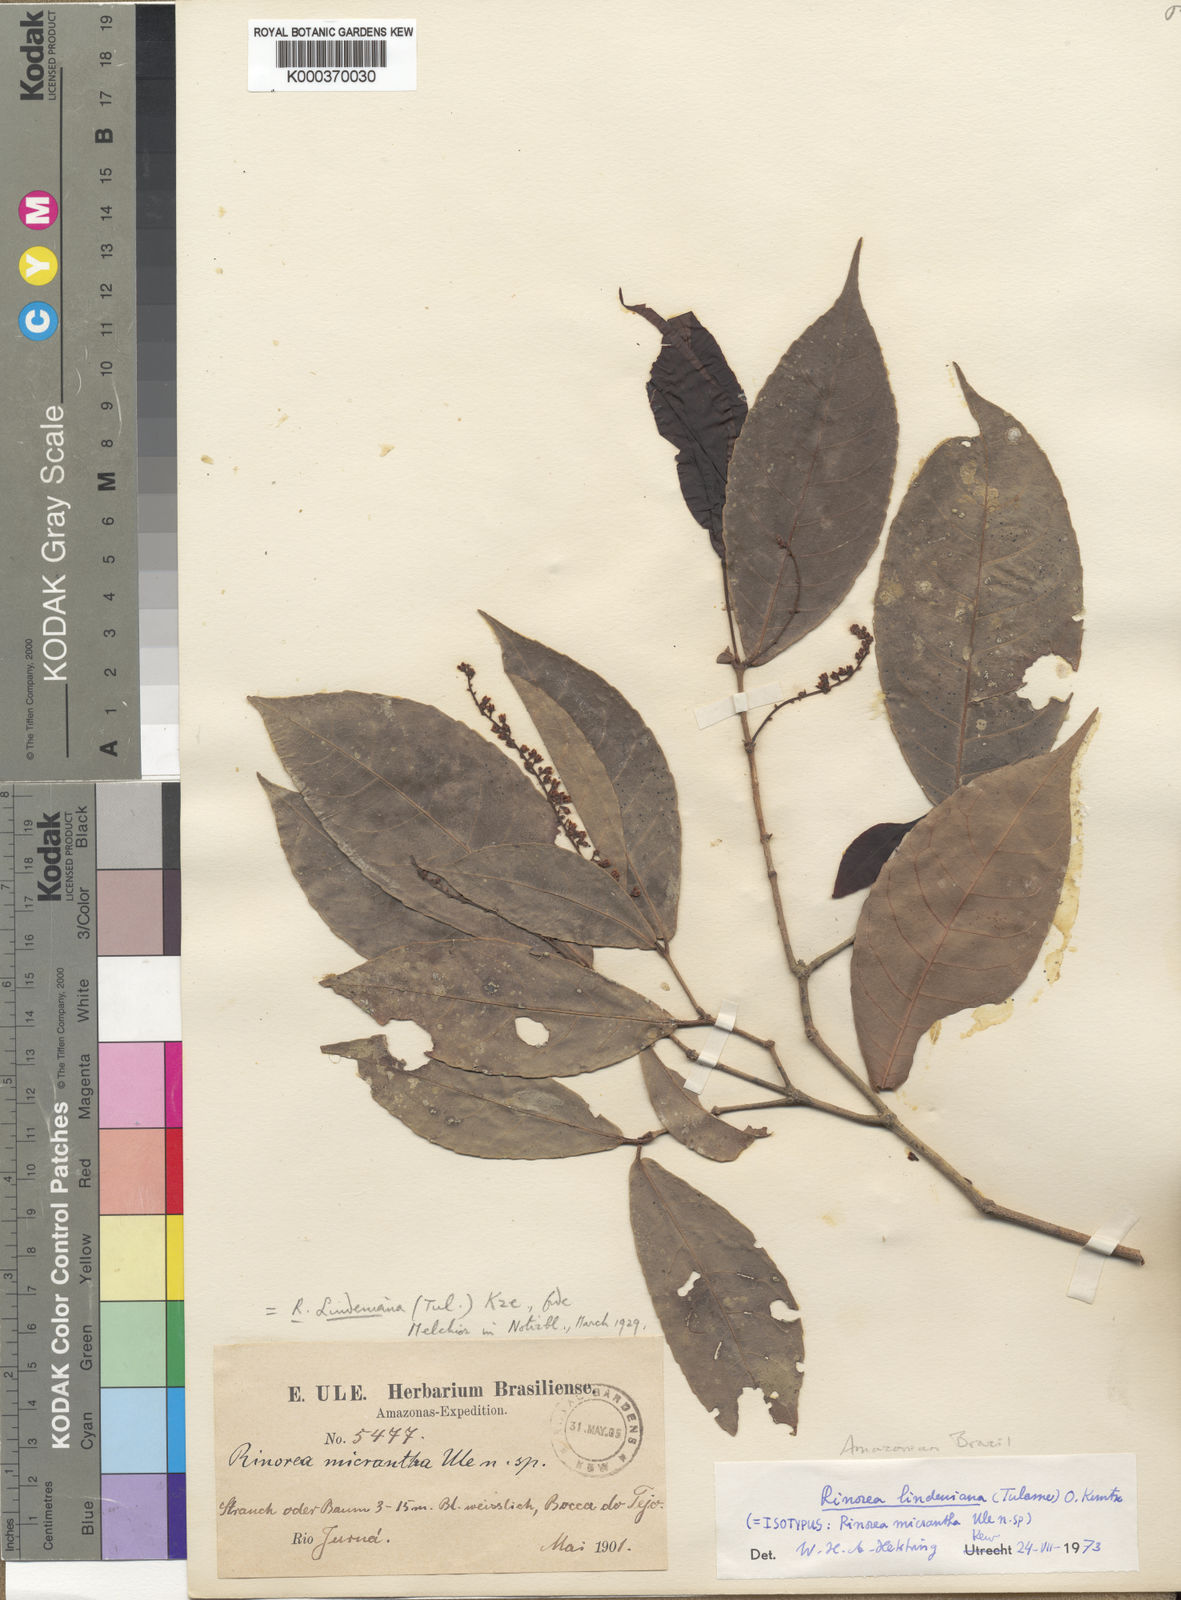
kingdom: Plantae
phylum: Tracheophyta
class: Magnoliopsida
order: Malpighiales
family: Violaceae
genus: Rinorea
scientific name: Rinorea lindeniana
